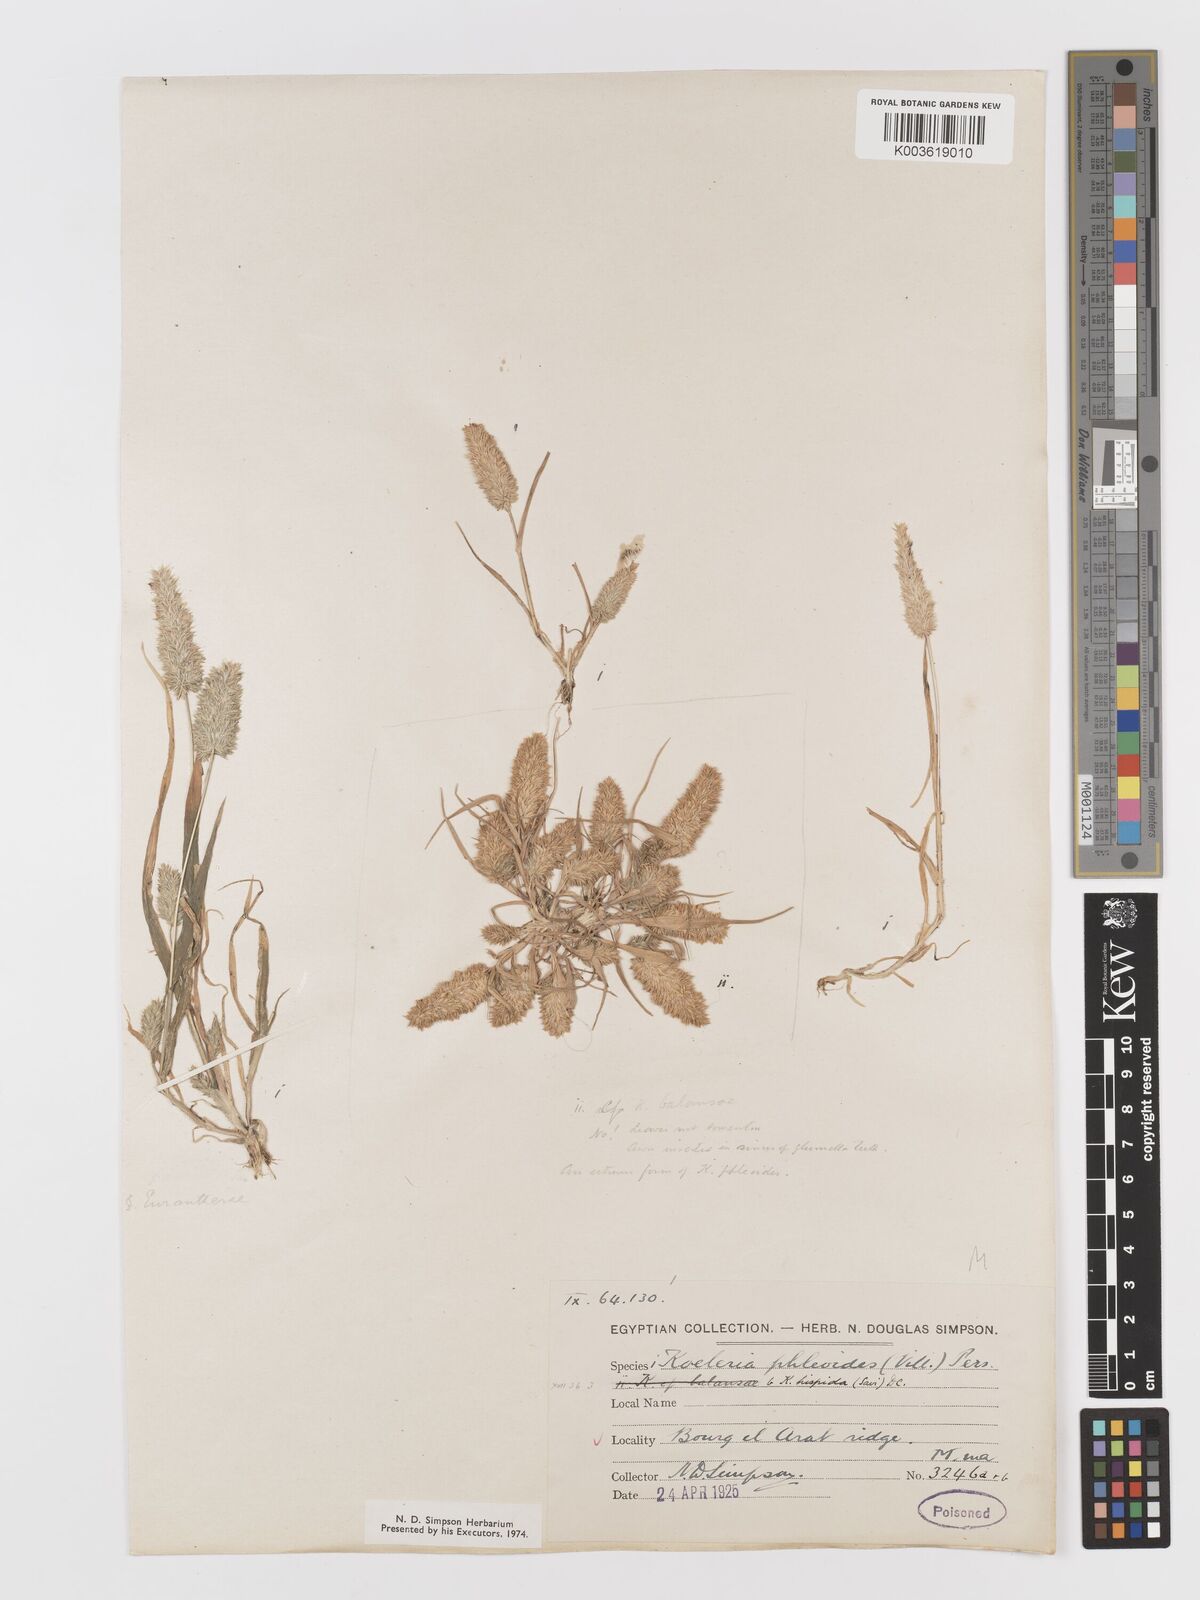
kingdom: Plantae
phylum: Tracheophyta
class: Liliopsida
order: Poales
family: Poaceae
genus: Rostraria
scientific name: Rostraria cristata
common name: Mediterranean hair-grass
